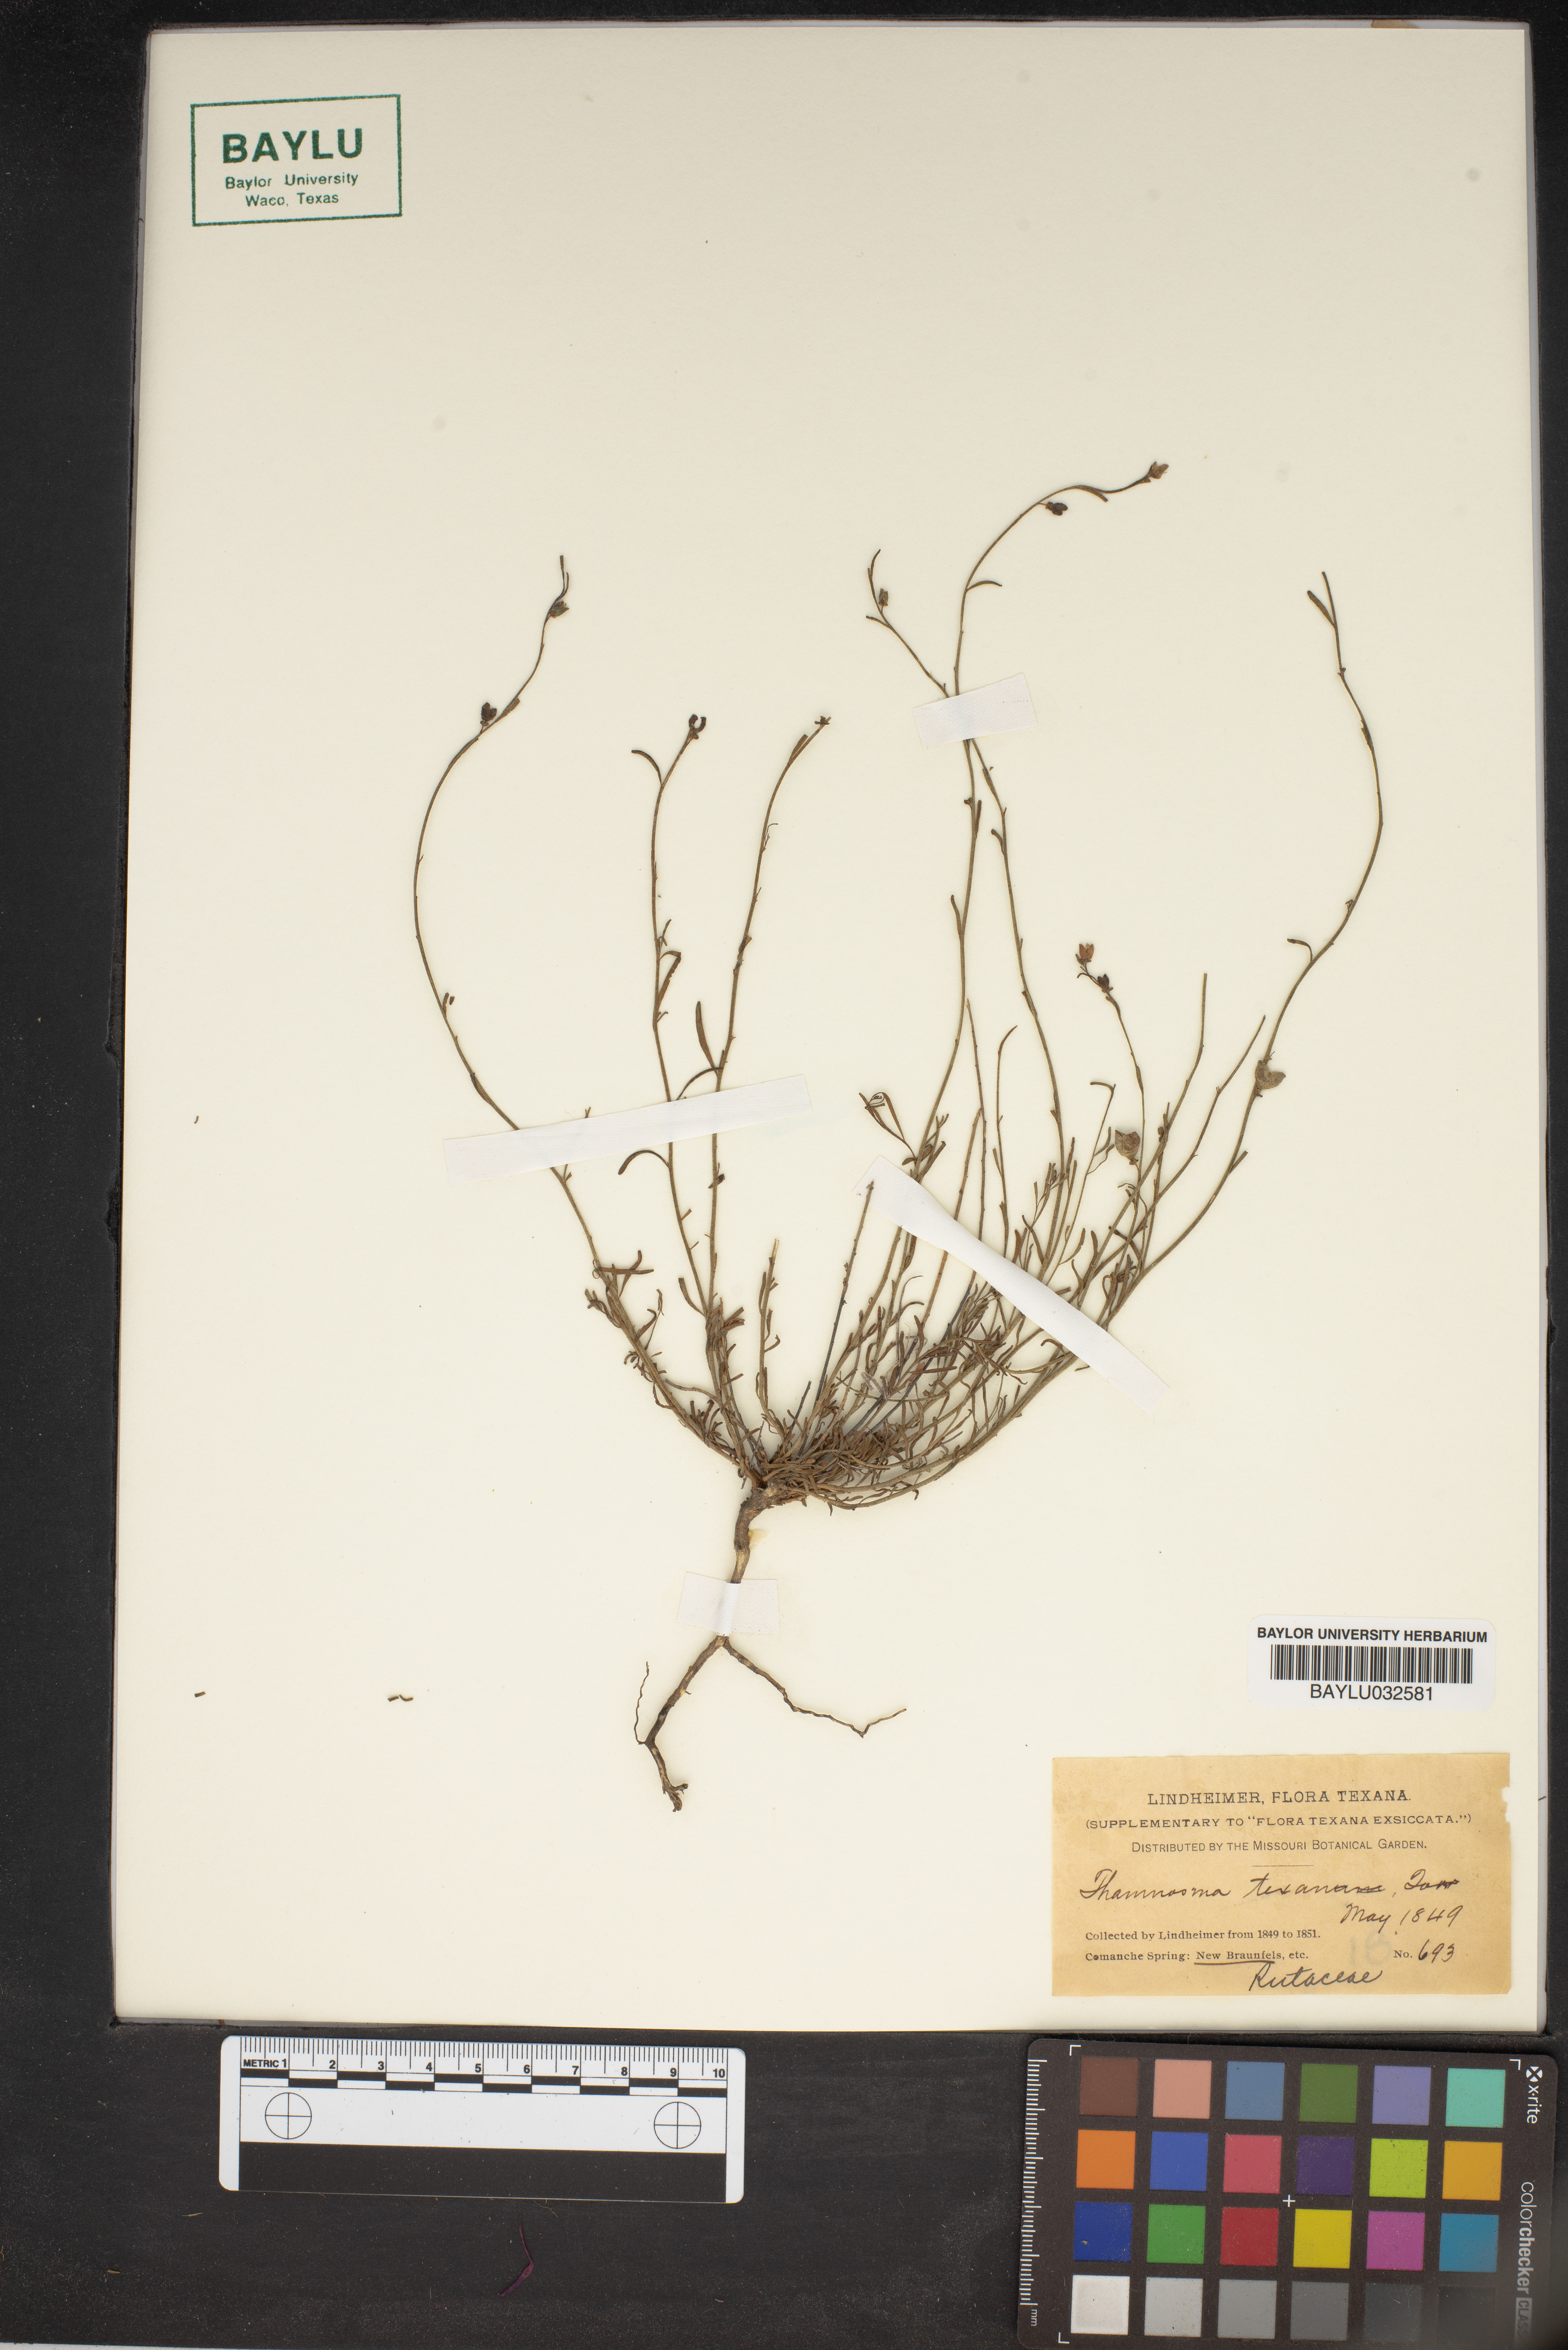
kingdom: Plantae
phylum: Tracheophyta
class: Magnoliopsida
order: Sapindales
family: Rutaceae
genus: Thamnosma
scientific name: Thamnosma texana
